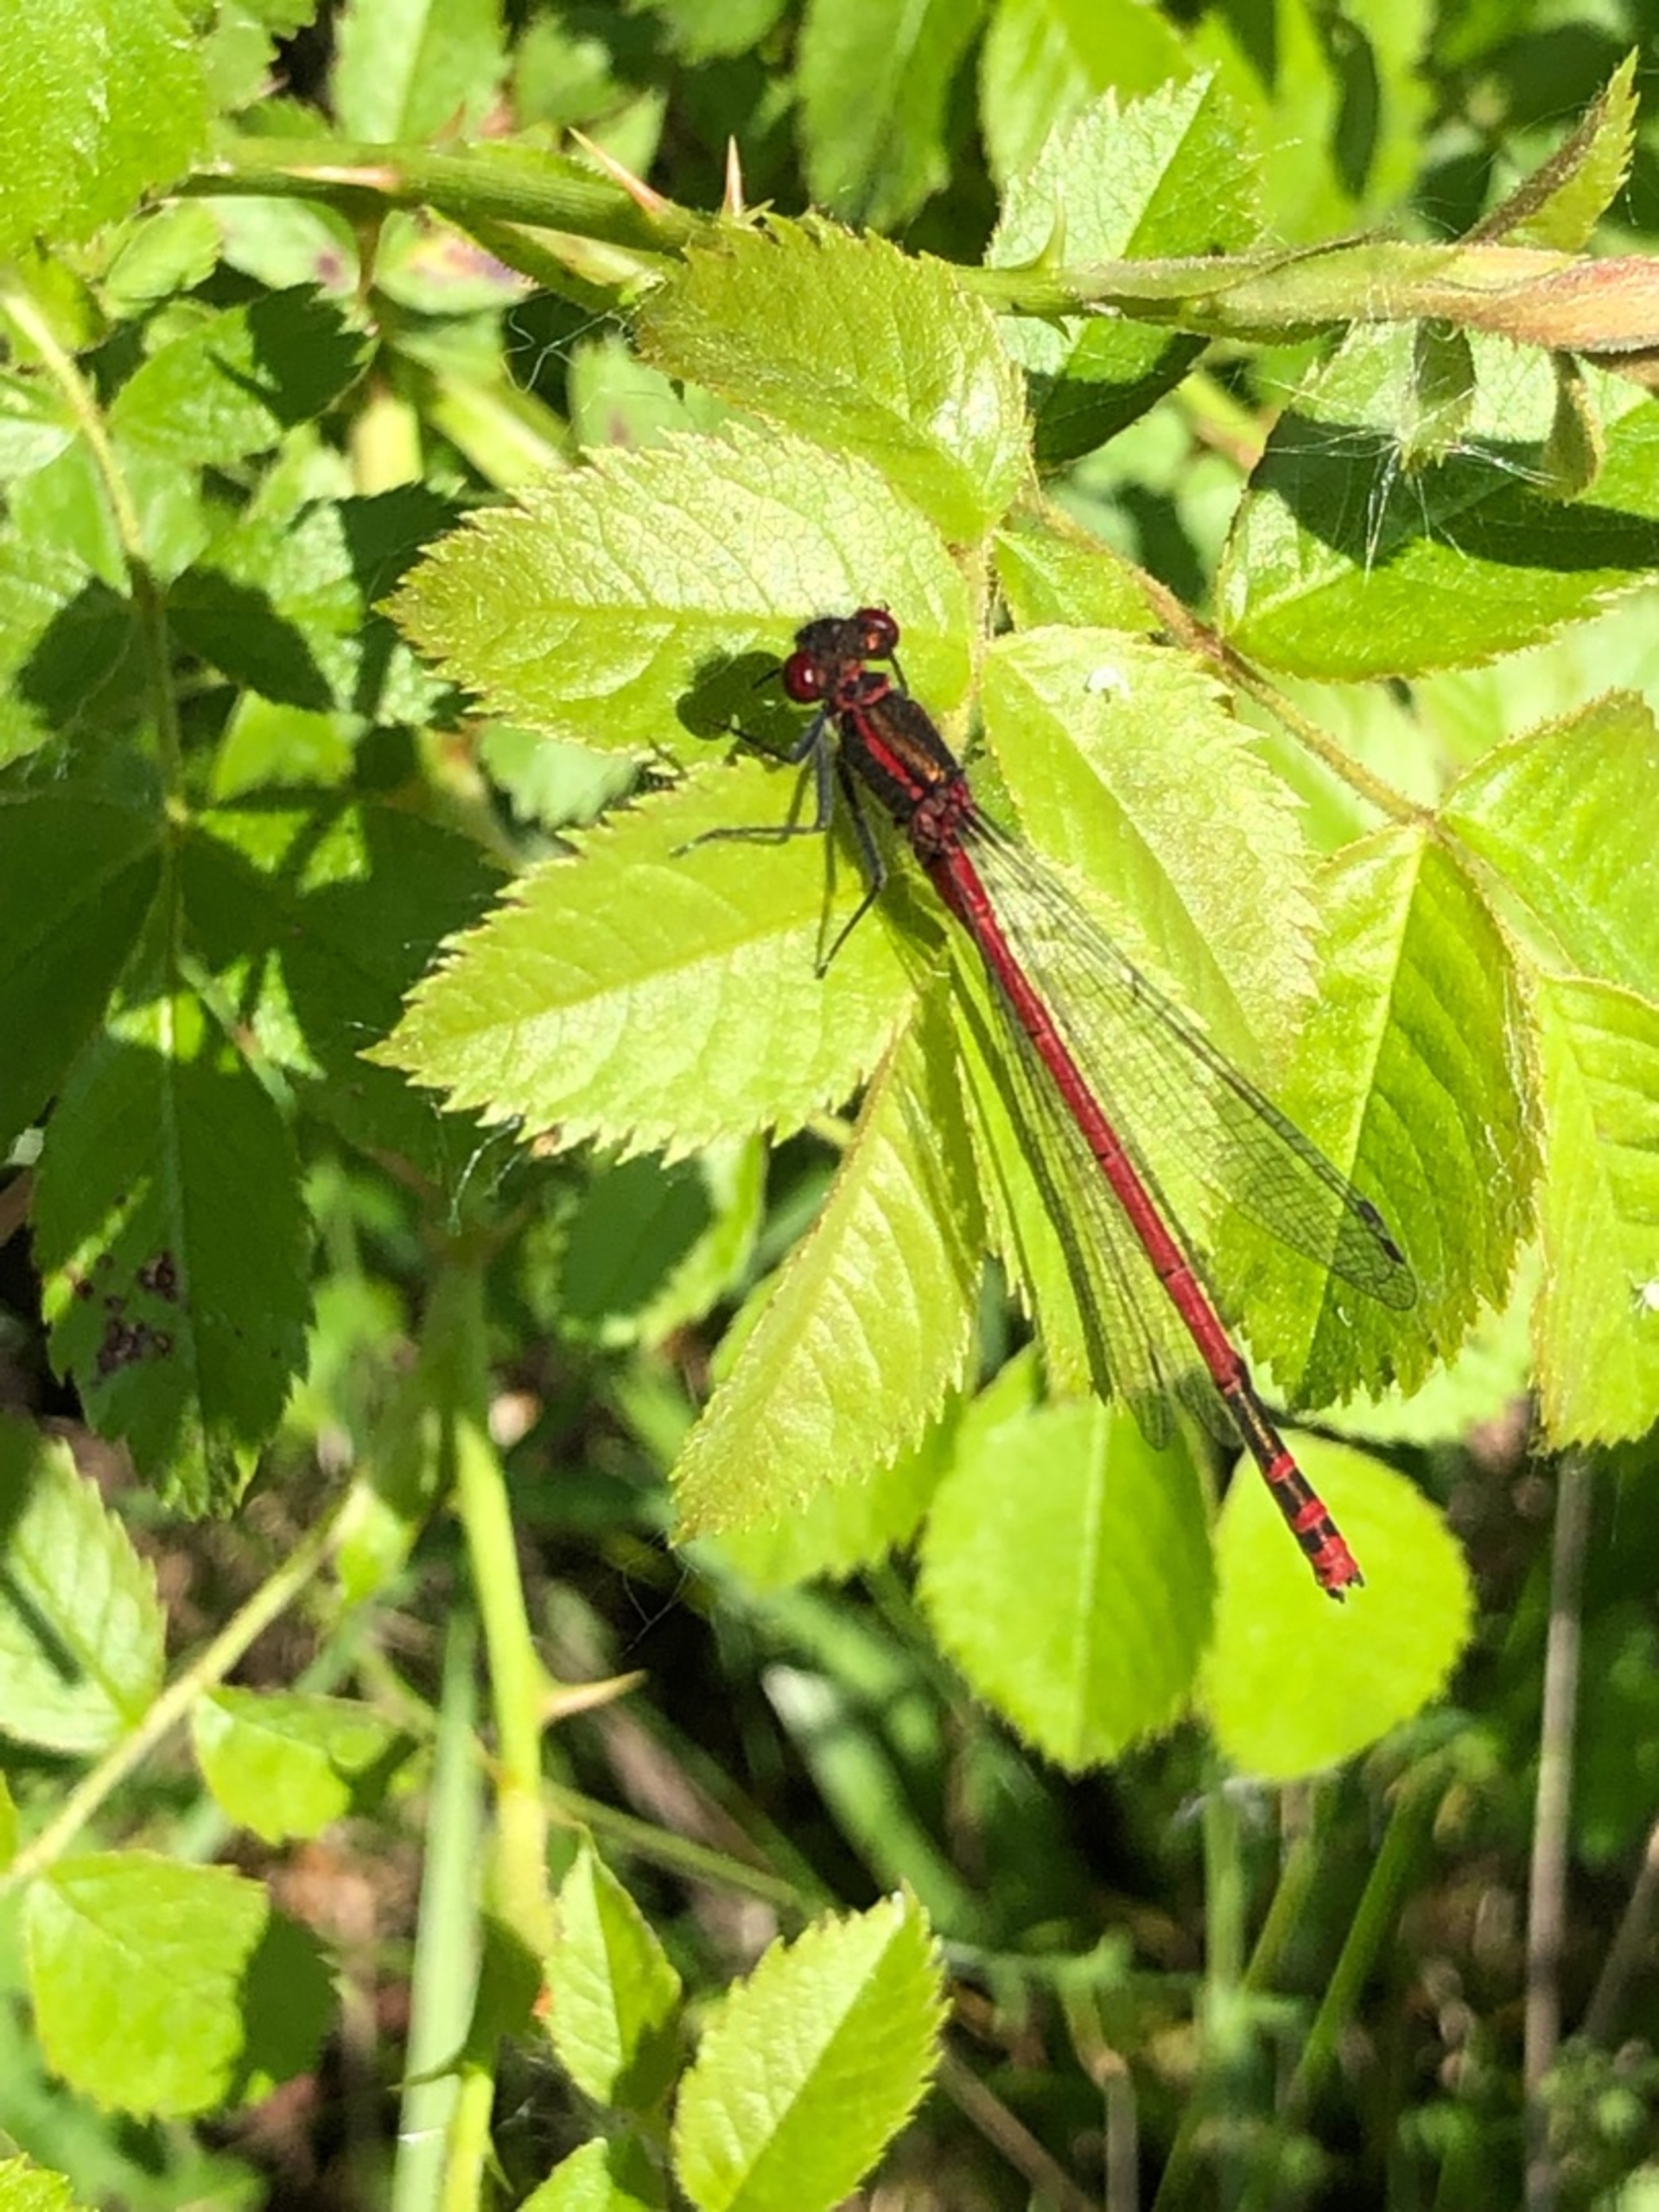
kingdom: Animalia
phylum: Arthropoda
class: Insecta
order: Odonata
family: Coenagrionidae
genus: Pyrrhosoma
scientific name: Pyrrhosoma nymphula
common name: Rød vandnymfe
